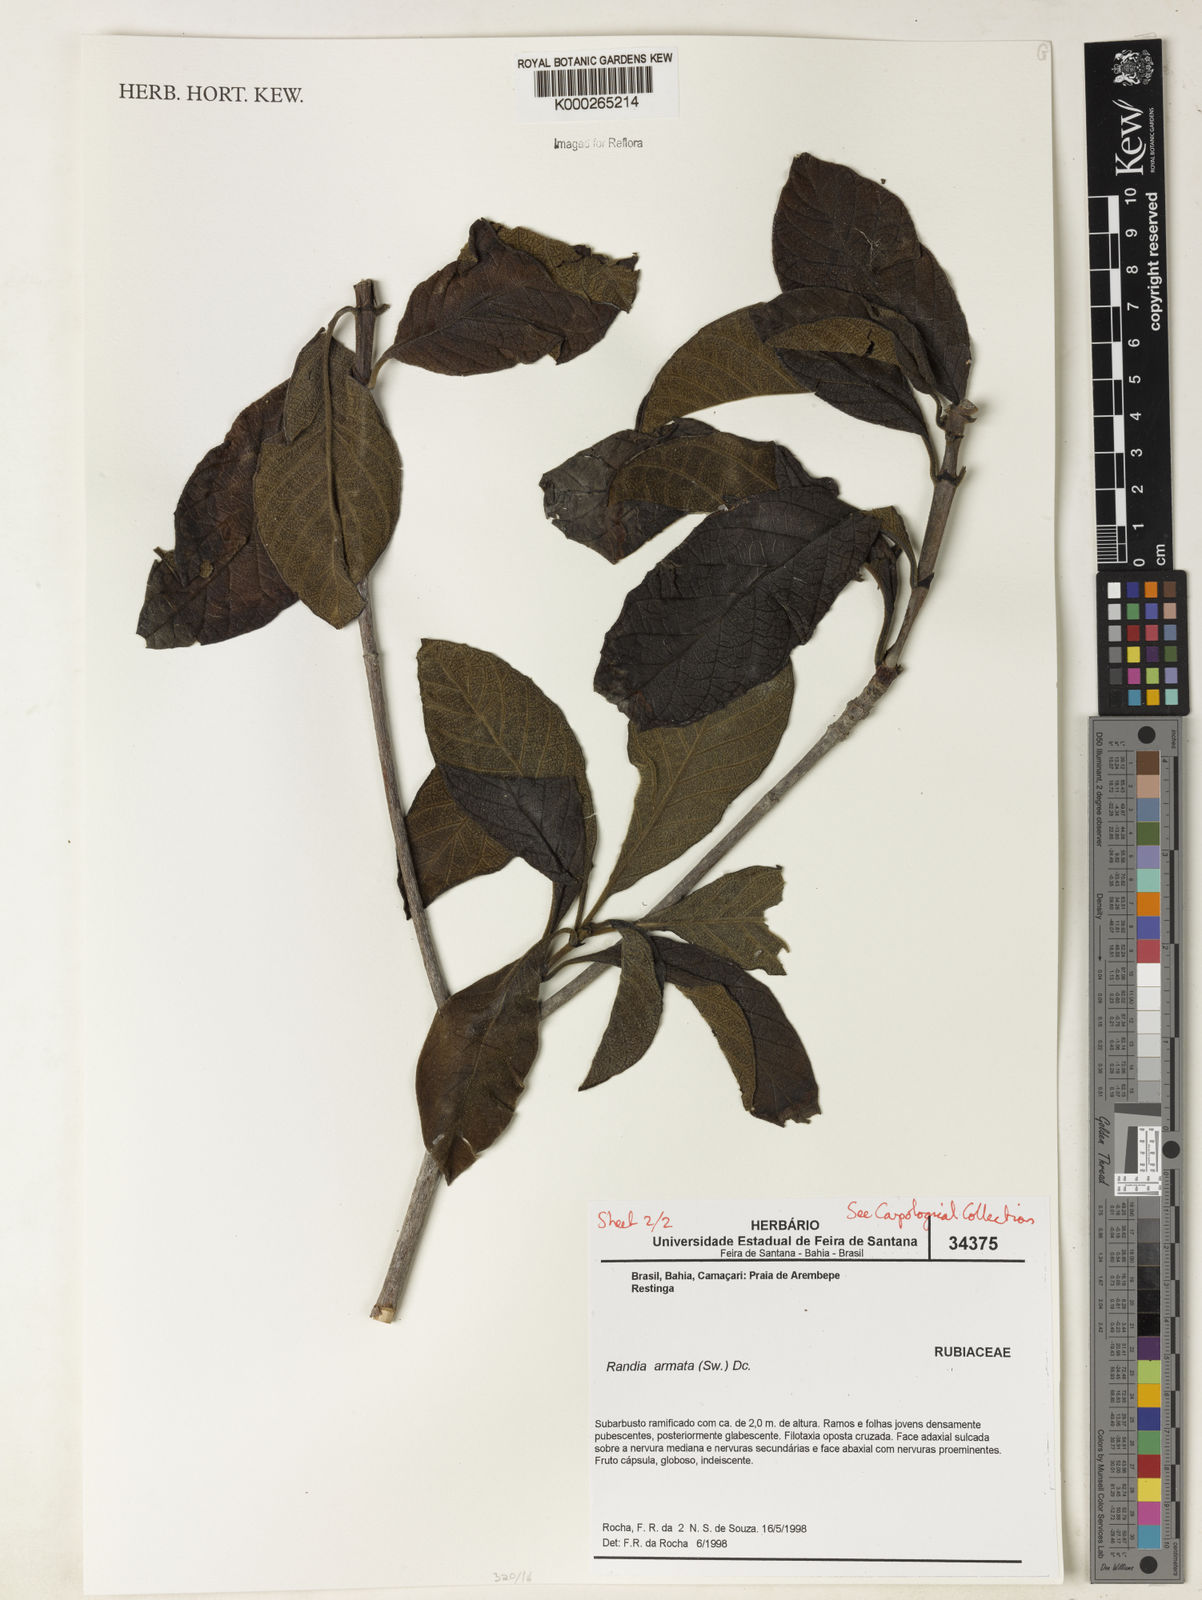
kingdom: Plantae
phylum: Tracheophyta
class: Magnoliopsida
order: Gentianales
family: Rubiaceae
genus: Randia
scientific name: Randia armata
